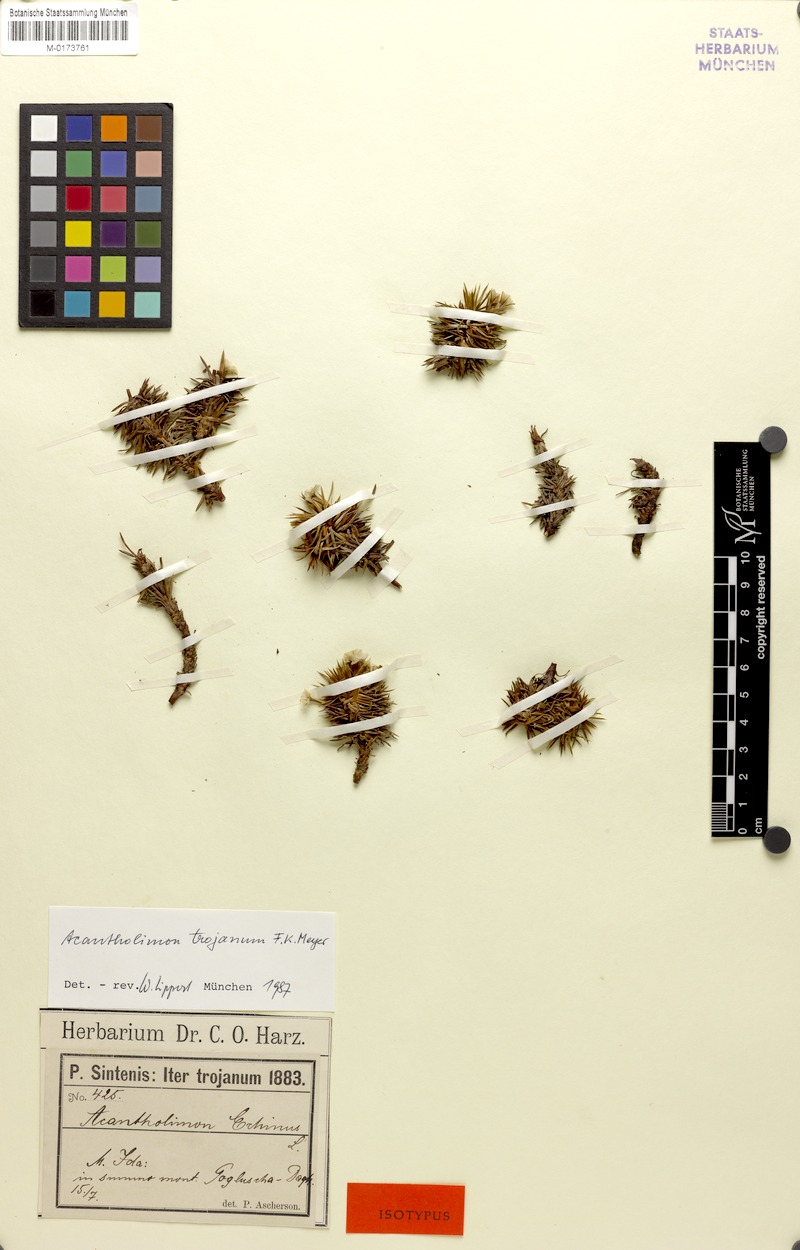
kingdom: Plantae
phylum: Tracheophyta
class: Magnoliopsida
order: Caryophyllales
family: Plumbaginaceae
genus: Acantholimon
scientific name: Acantholimon ulicinum
